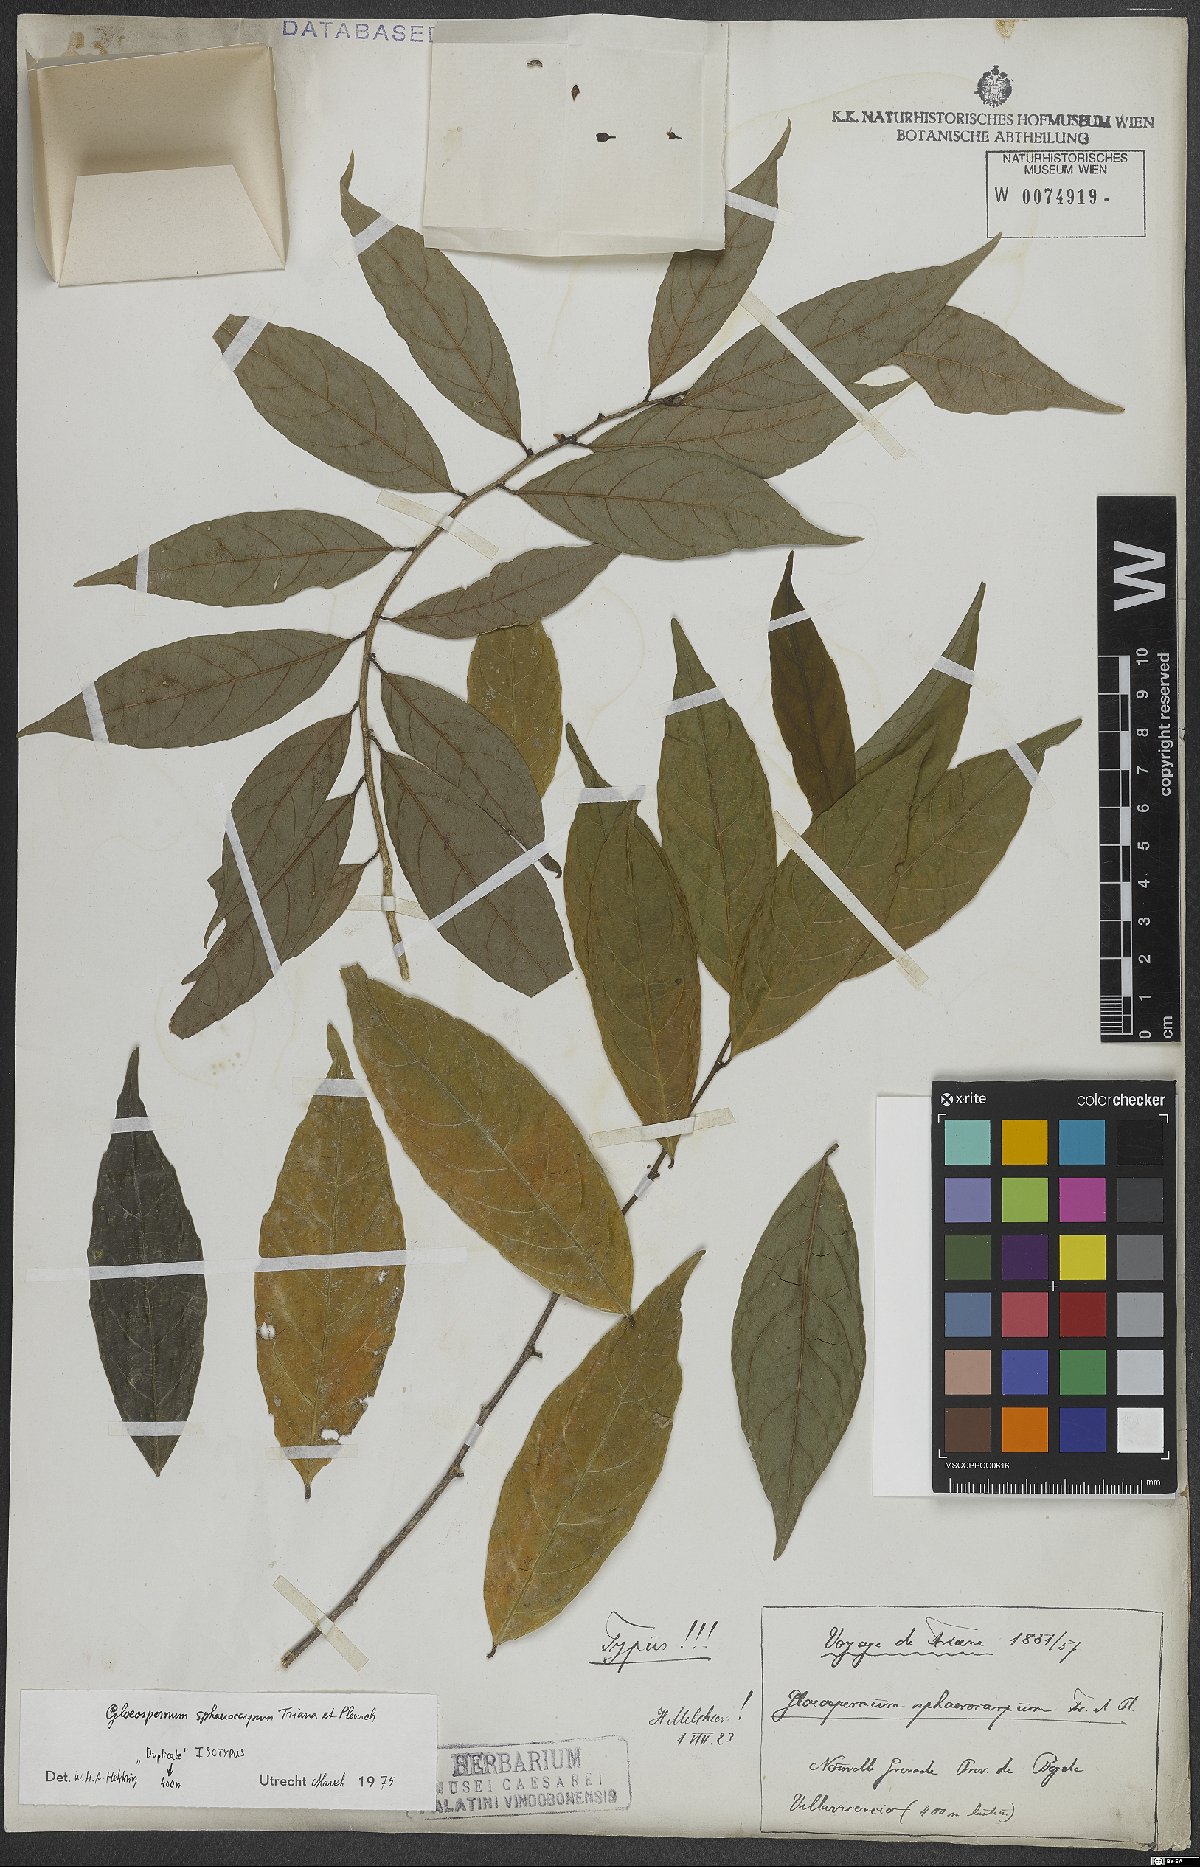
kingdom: Plantae
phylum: Tracheophyta
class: Magnoliopsida
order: Malpighiales
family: Violaceae
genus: Gloeospermum
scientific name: Gloeospermum sphaerocarpum
